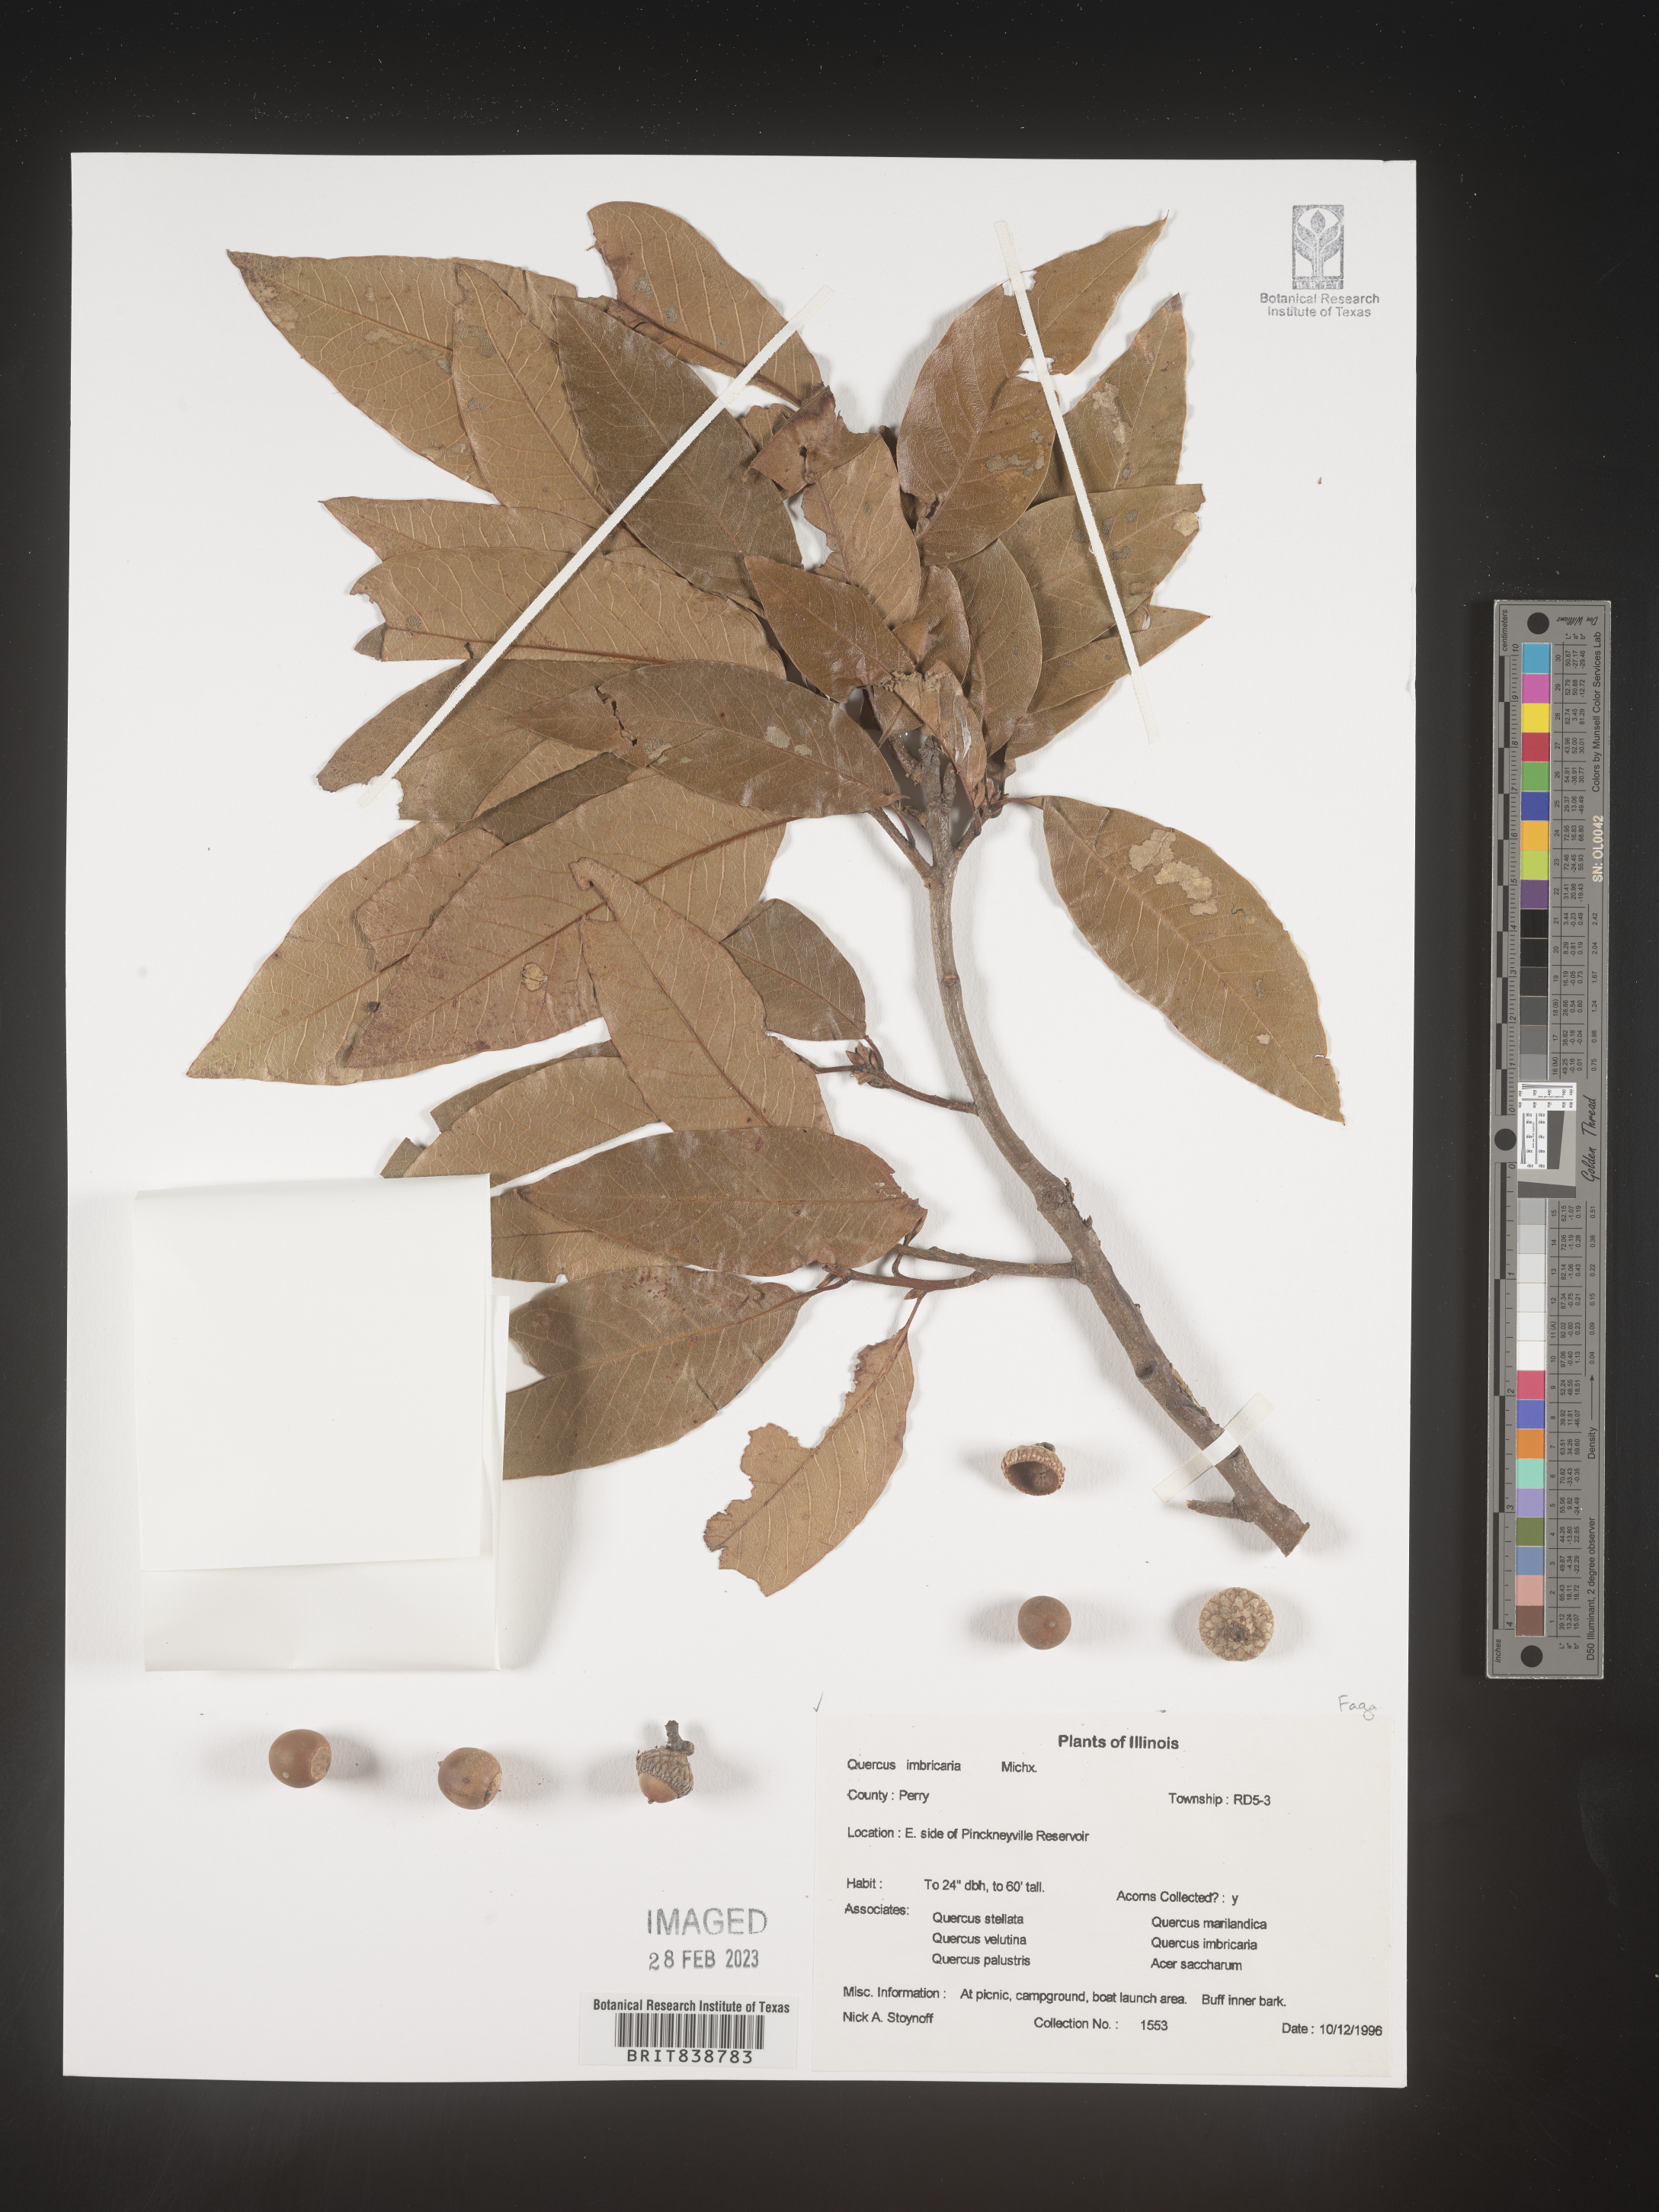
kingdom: Plantae
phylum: Tracheophyta
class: Magnoliopsida
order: Fagales
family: Fagaceae
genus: Quercus
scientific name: Quercus imbricaria
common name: Shingle oak
